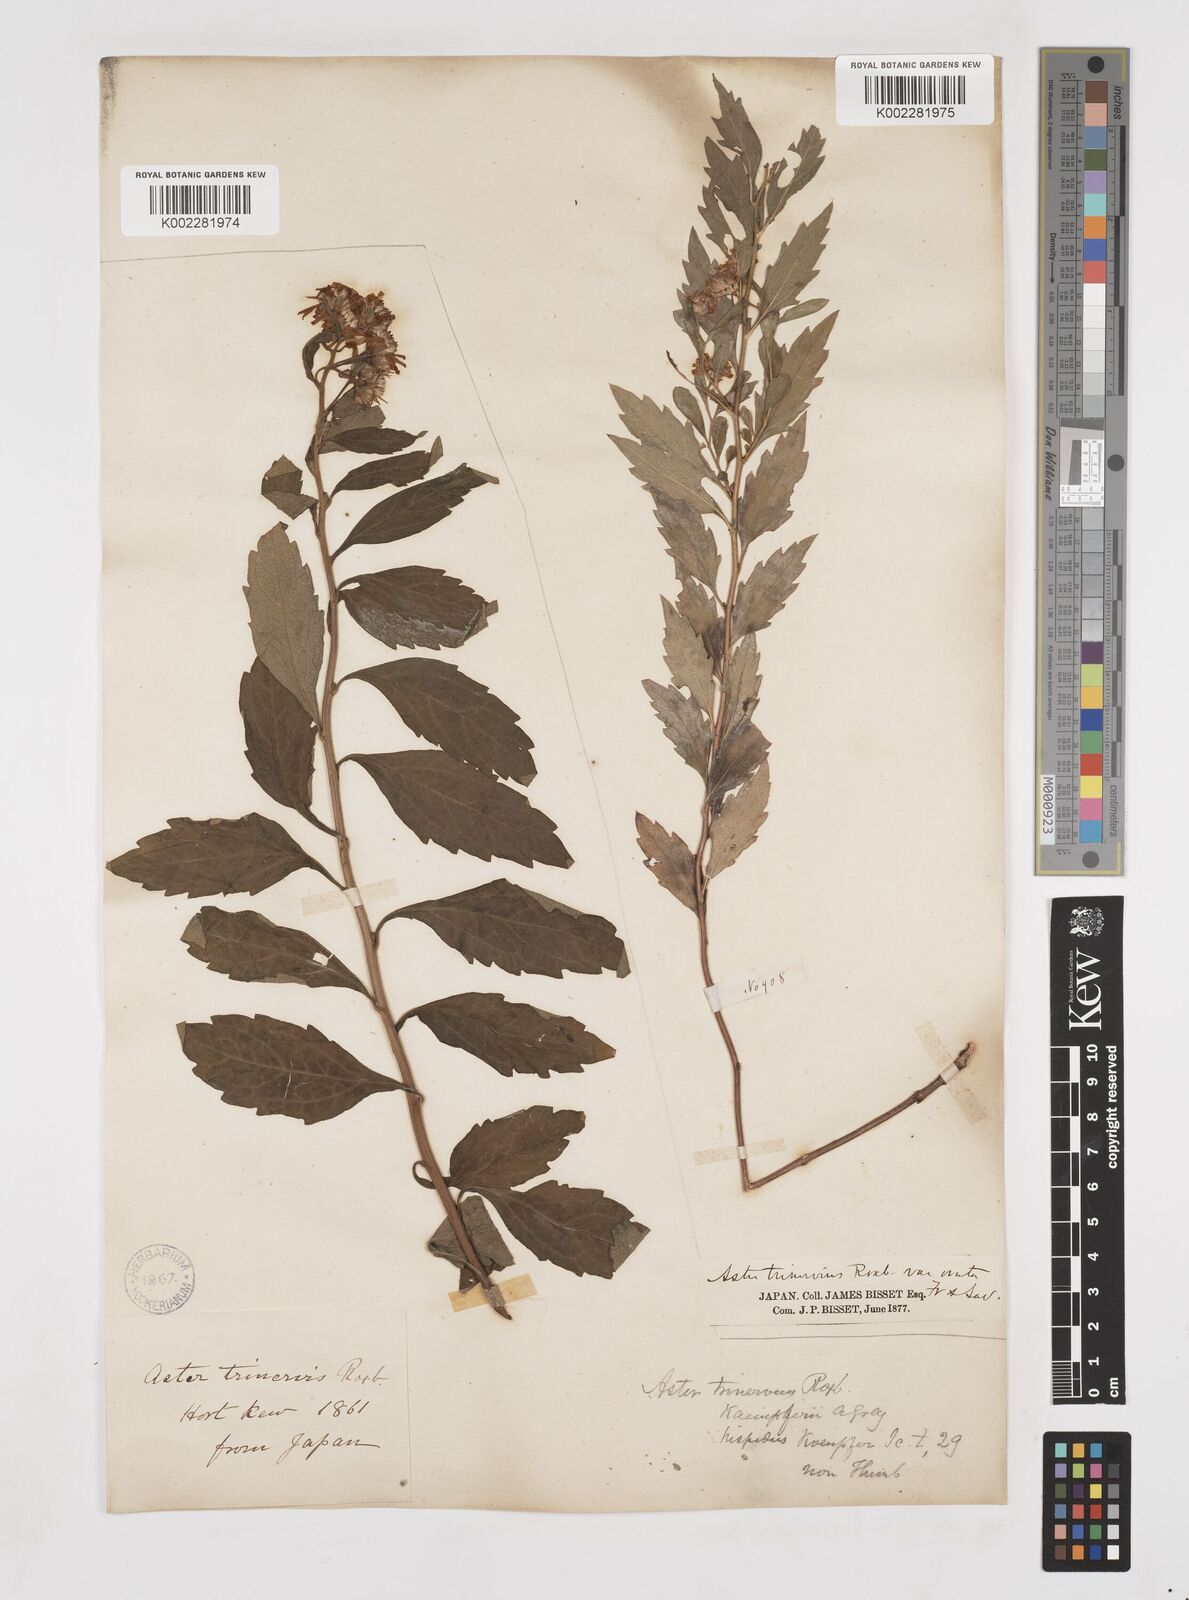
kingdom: Plantae
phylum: Tracheophyta
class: Magnoliopsida
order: Asterales
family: Asteraceae
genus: Aster
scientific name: Aster trinervius
